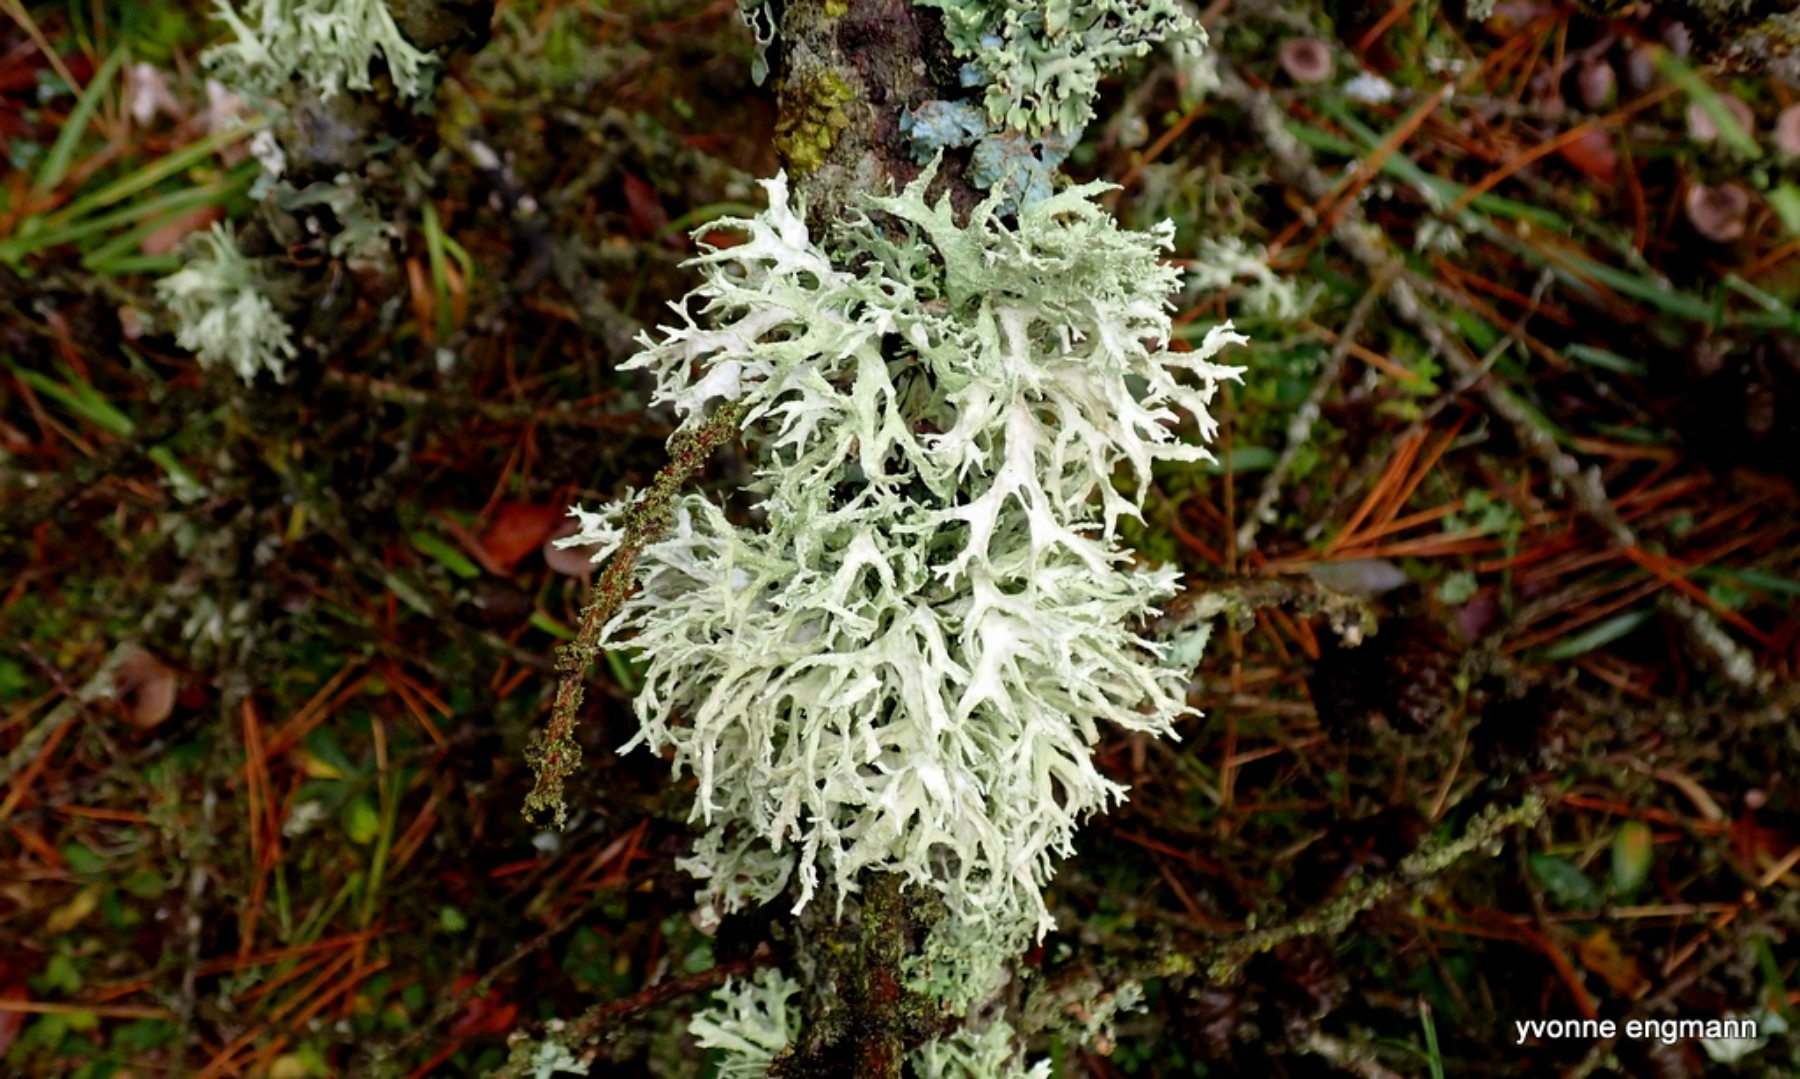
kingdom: Fungi
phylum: Ascomycota
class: Lecanoromycetes
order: Lecanorales
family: Parmeliaceae
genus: Evernia
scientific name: Evernia prunastri
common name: almindelig slåenlav
